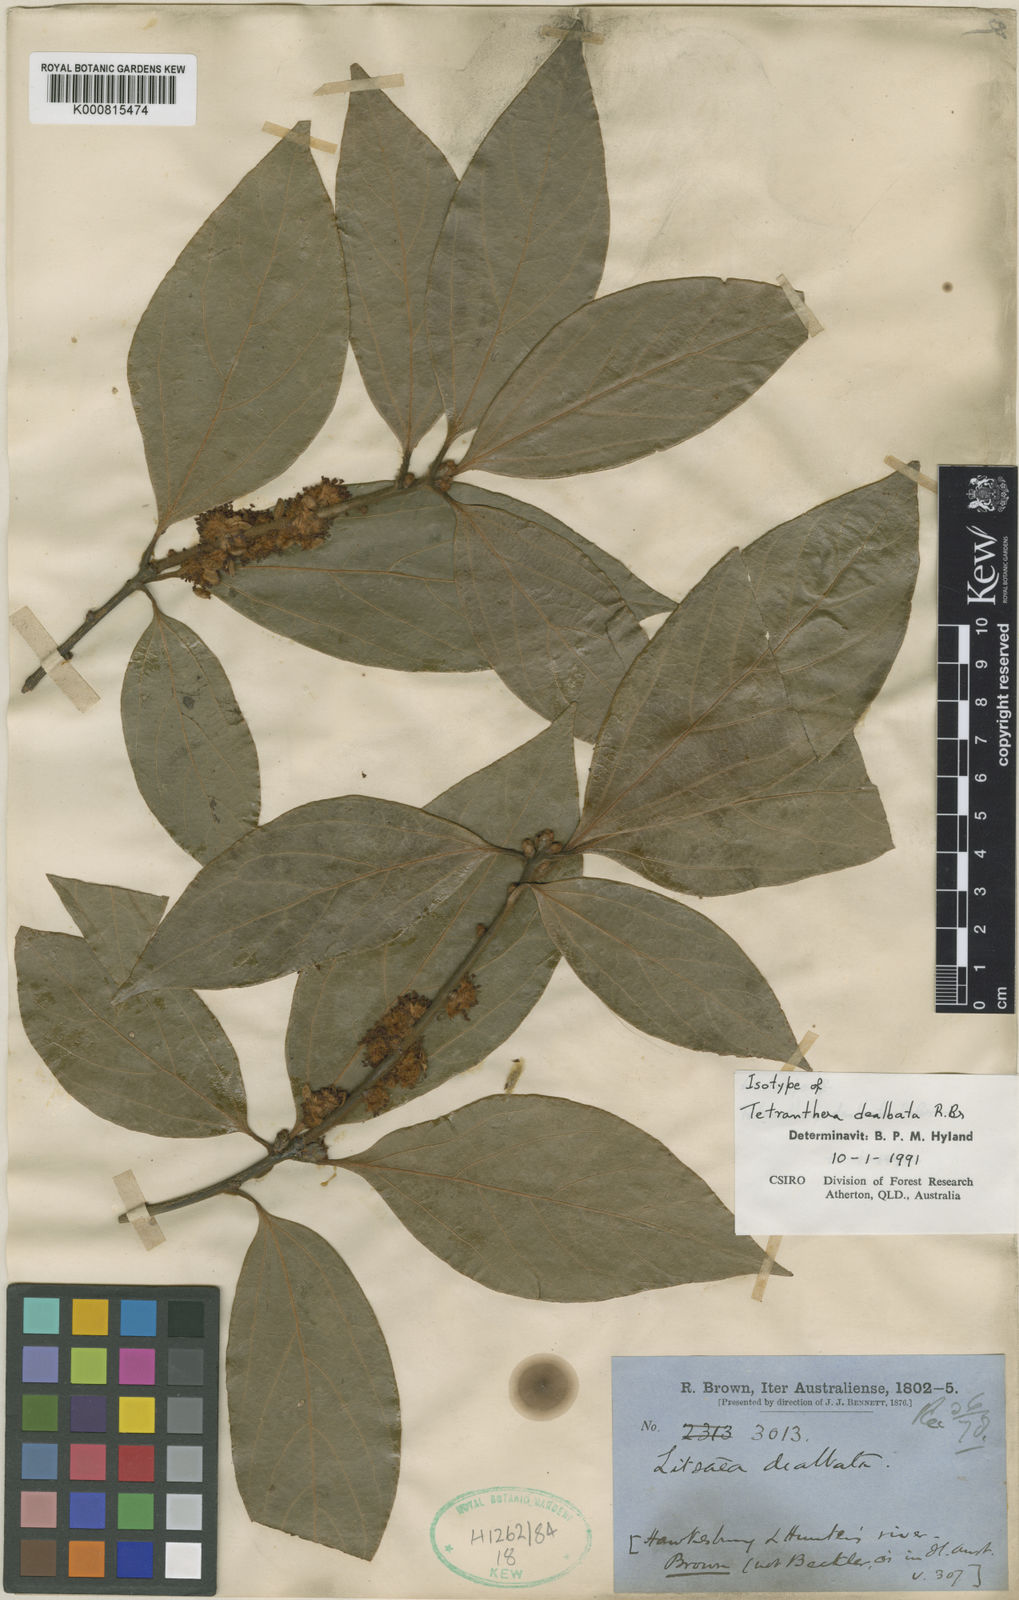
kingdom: Plantae
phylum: Tracheophyta
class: Magnoliopsida
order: Laurales
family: Lauraceae
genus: Neolitsea
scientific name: Neolitsea dealbata
